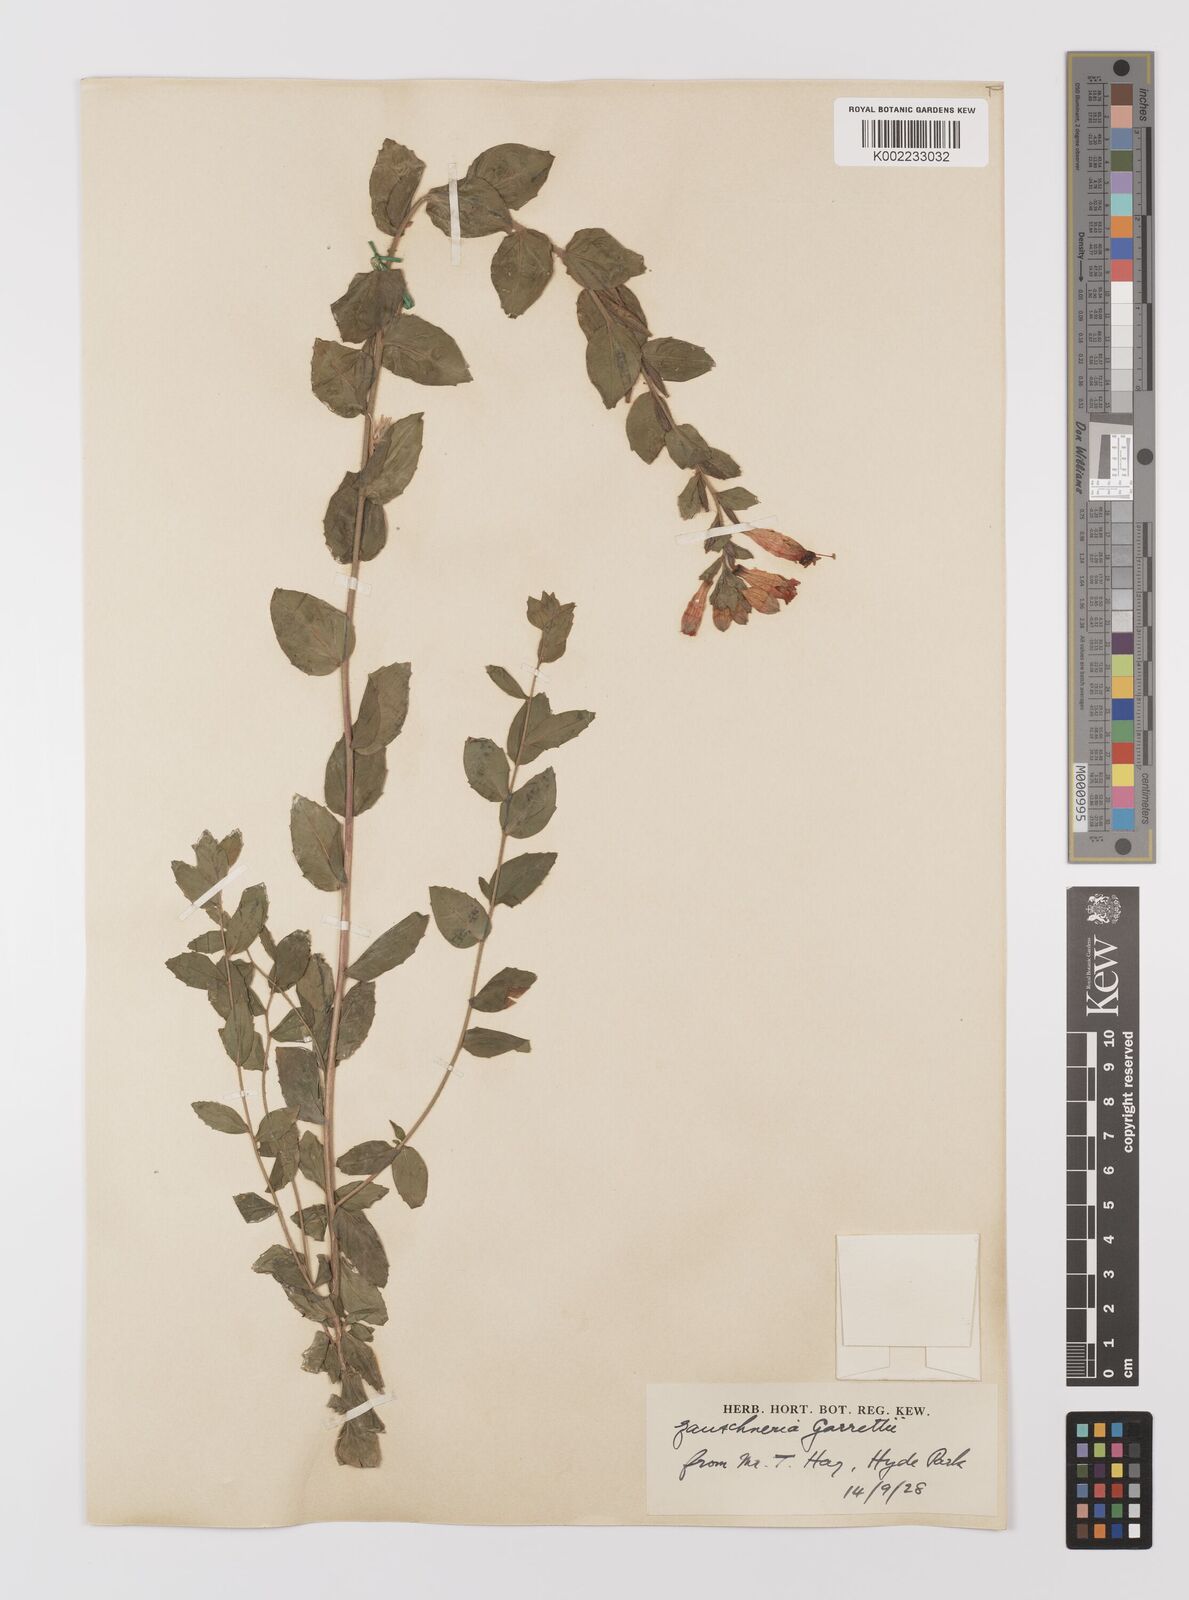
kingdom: Plantae
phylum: Tracheophyta
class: Magnoliopsida
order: Myrtales
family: Onagraceae
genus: Epilobium
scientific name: Epilobium
